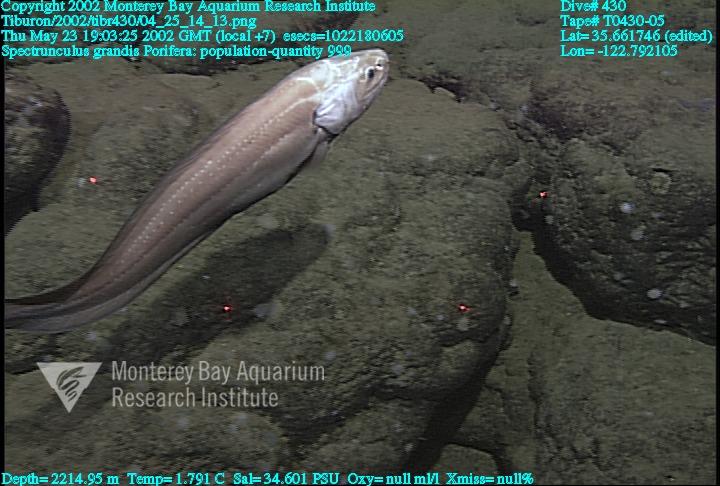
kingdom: Animalia
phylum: Porifera
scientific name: Porifera
